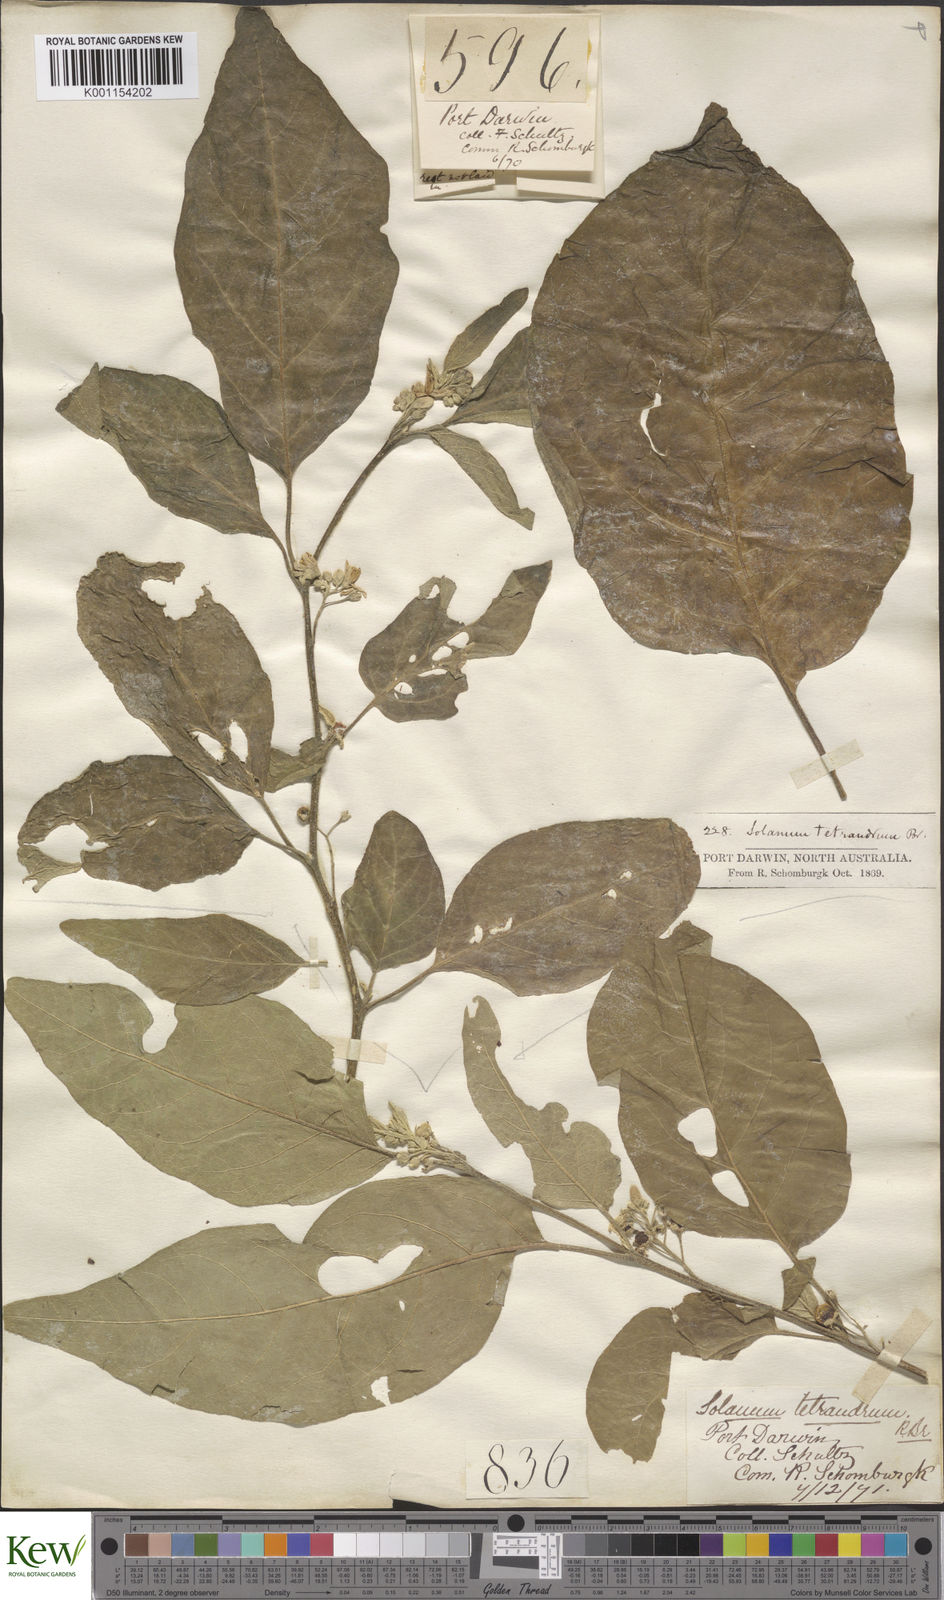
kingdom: Plantae
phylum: Tracheophyta
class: Magnoliopsida
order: Solanales
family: Solanaceae
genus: Solanum
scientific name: Solanum tetrandrum
